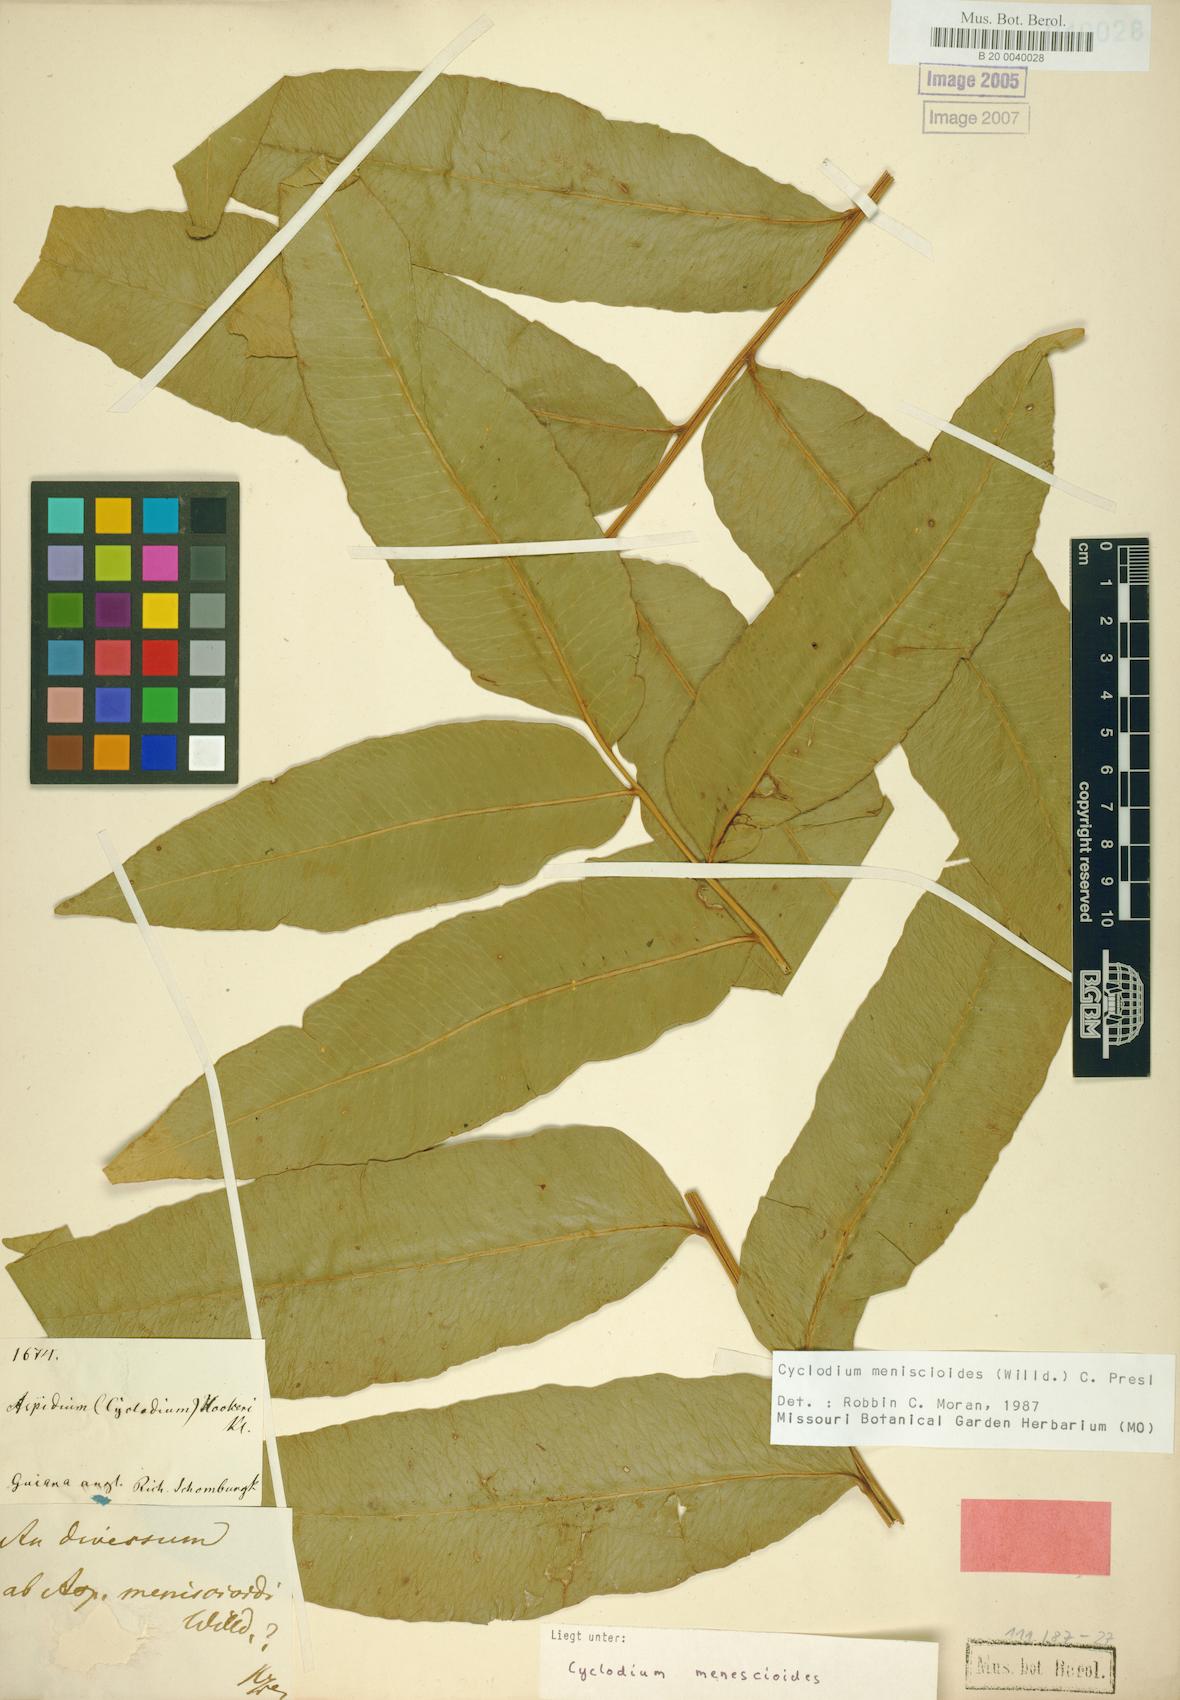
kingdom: Plantae
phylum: Tracheophyta
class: Polypodiopsida
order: Polypodiales
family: Dryopteridaceae
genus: Cyclodium
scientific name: Cyclodium meniscioides
